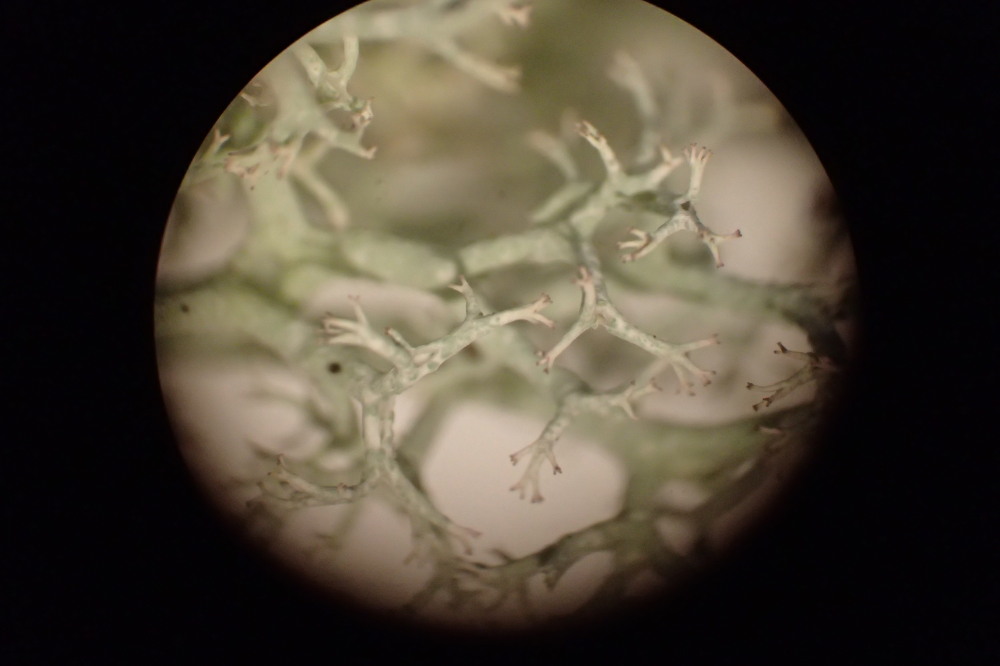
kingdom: Fungi
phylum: Ascomycota
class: Lecanoromycetes
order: Lecanorales
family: Cladoniaceae
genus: Cladonia
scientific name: Cladonia portentosa
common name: hede-rensdyrlav
